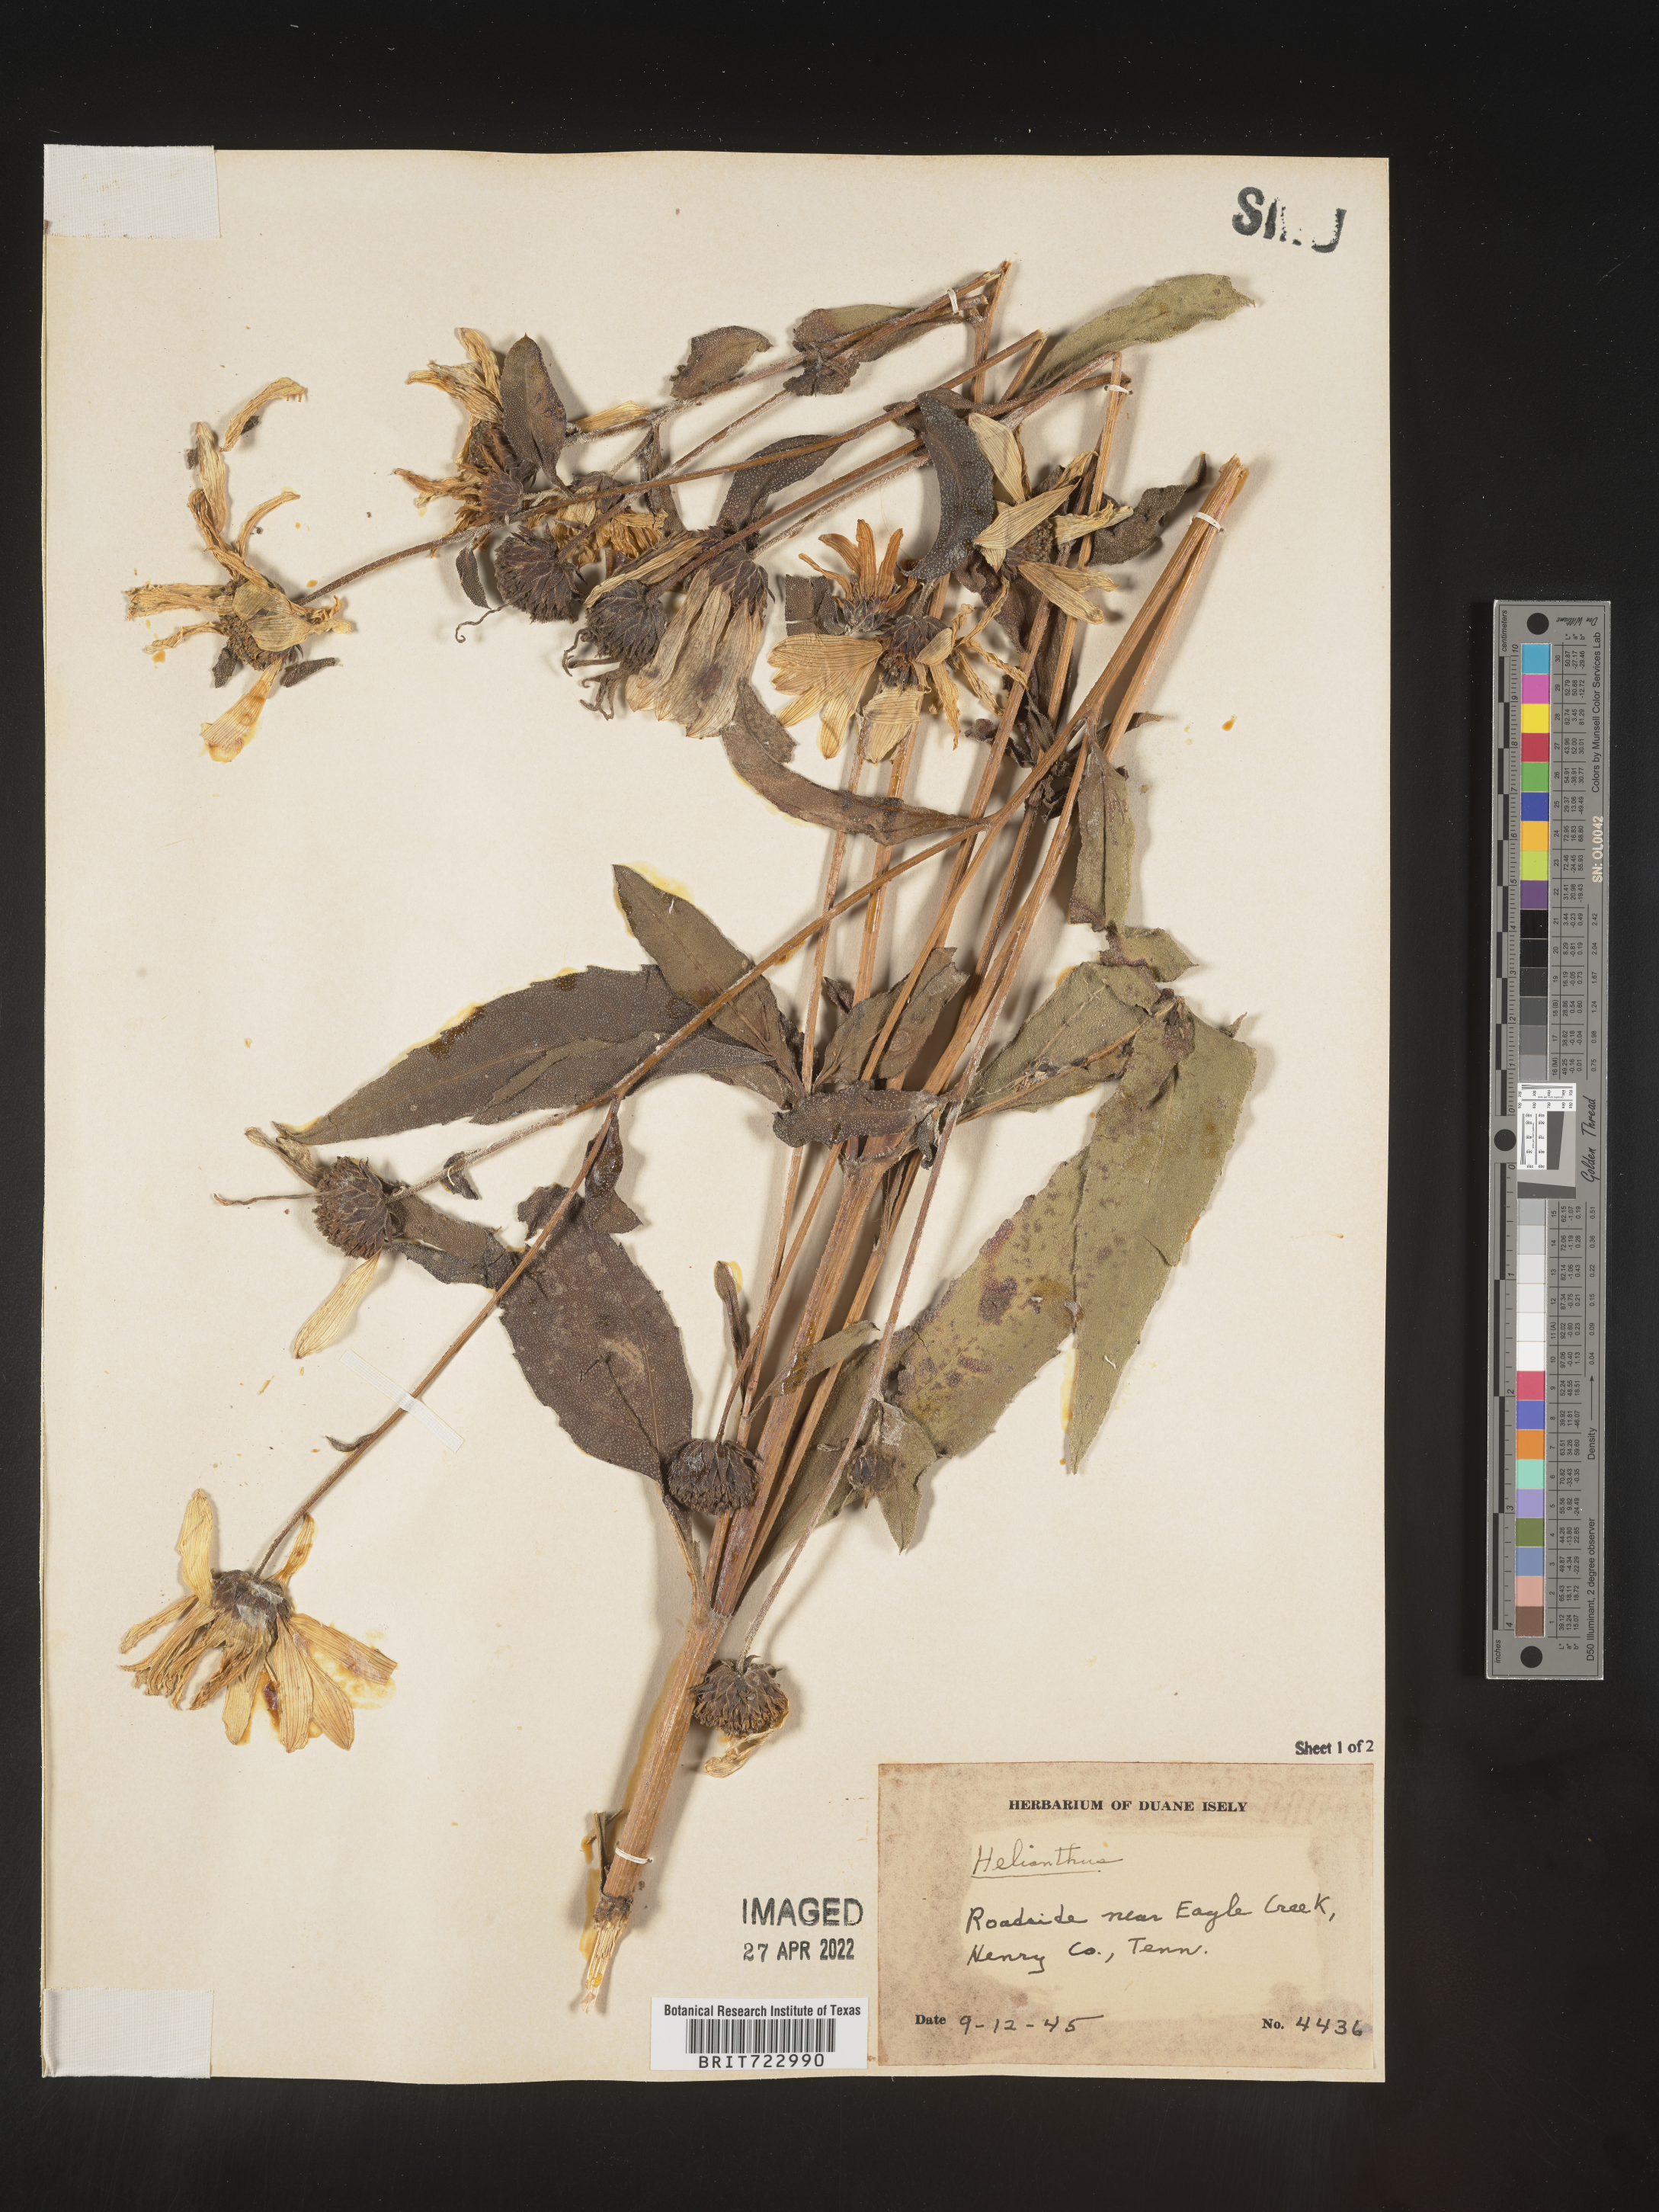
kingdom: Plantae
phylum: Tracheophyta
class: Magnoliopsida
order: Asterales
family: Asteraceae
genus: Helianthus
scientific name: Helianthus
